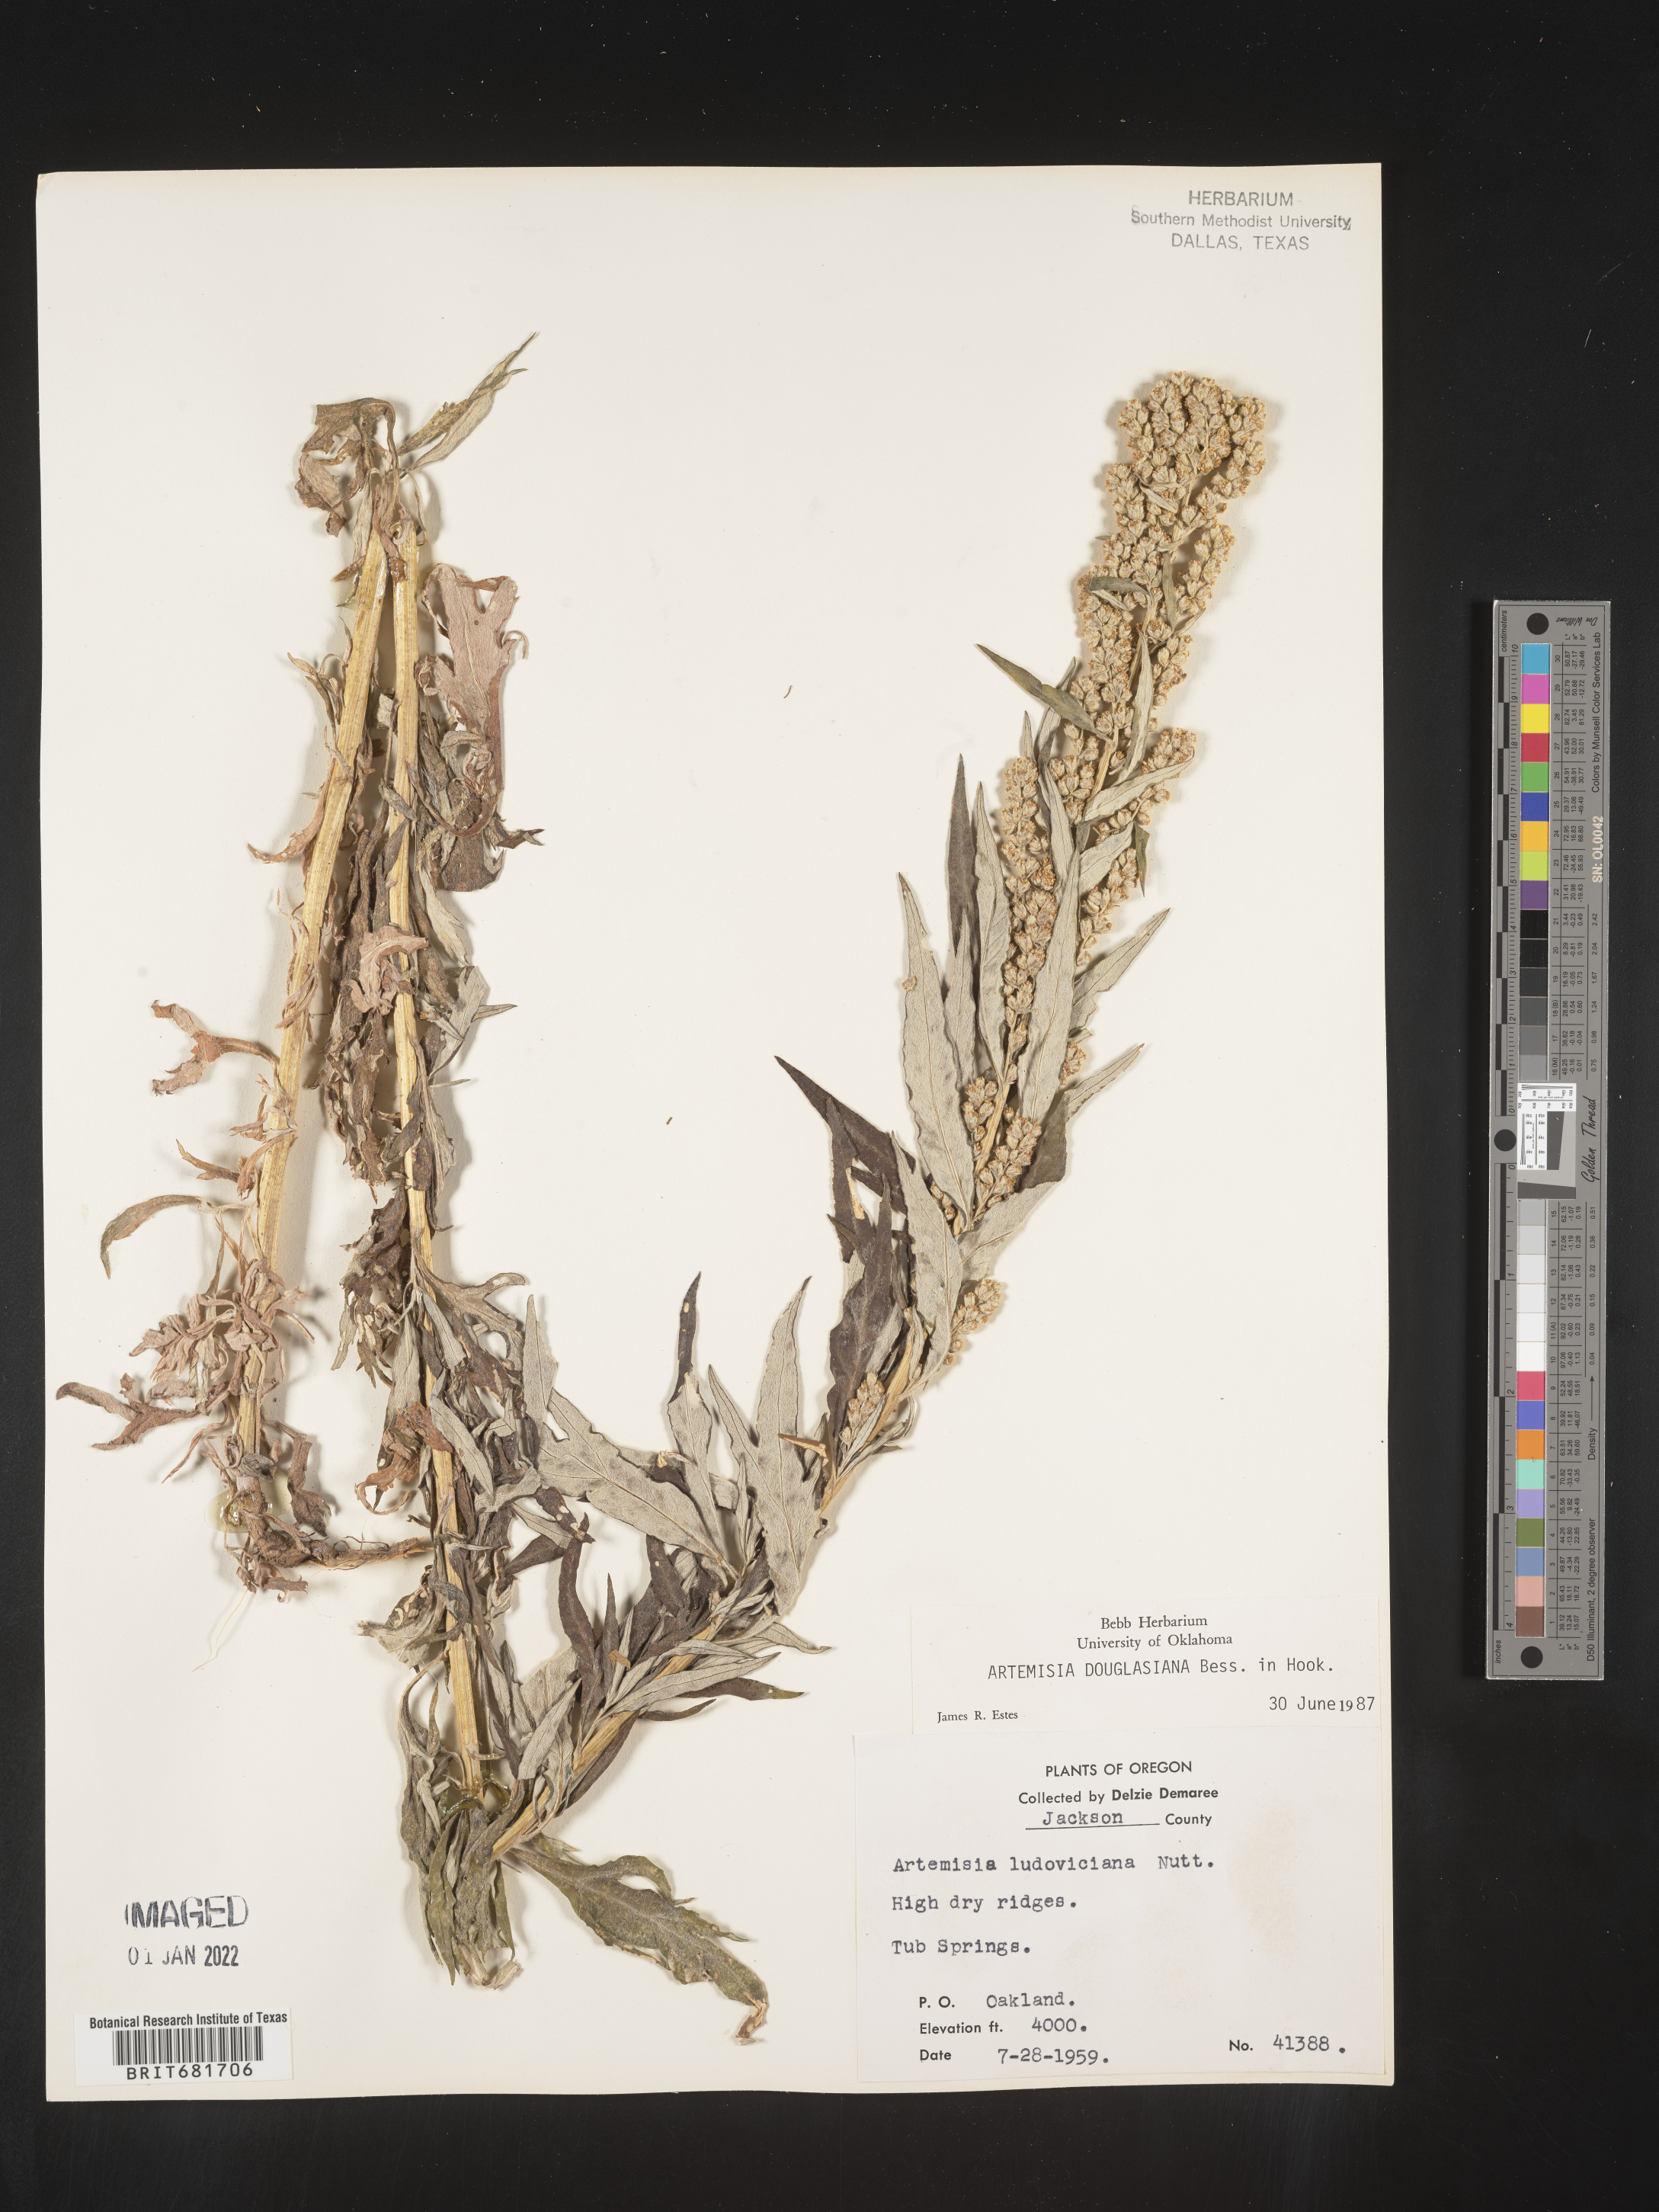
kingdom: Plantae
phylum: Tracheophyta
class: Magnoliopsida
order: Asterales
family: Asteraceae
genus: Artemisia
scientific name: Artemisia douglasiana
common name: Northwest mugwort
